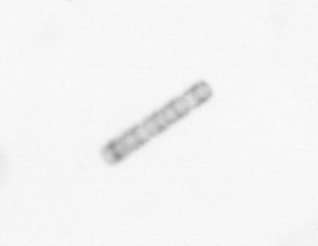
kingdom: Chromista
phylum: Ochrophyta
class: Bacillariophyceae
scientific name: Bacillariophyceae
